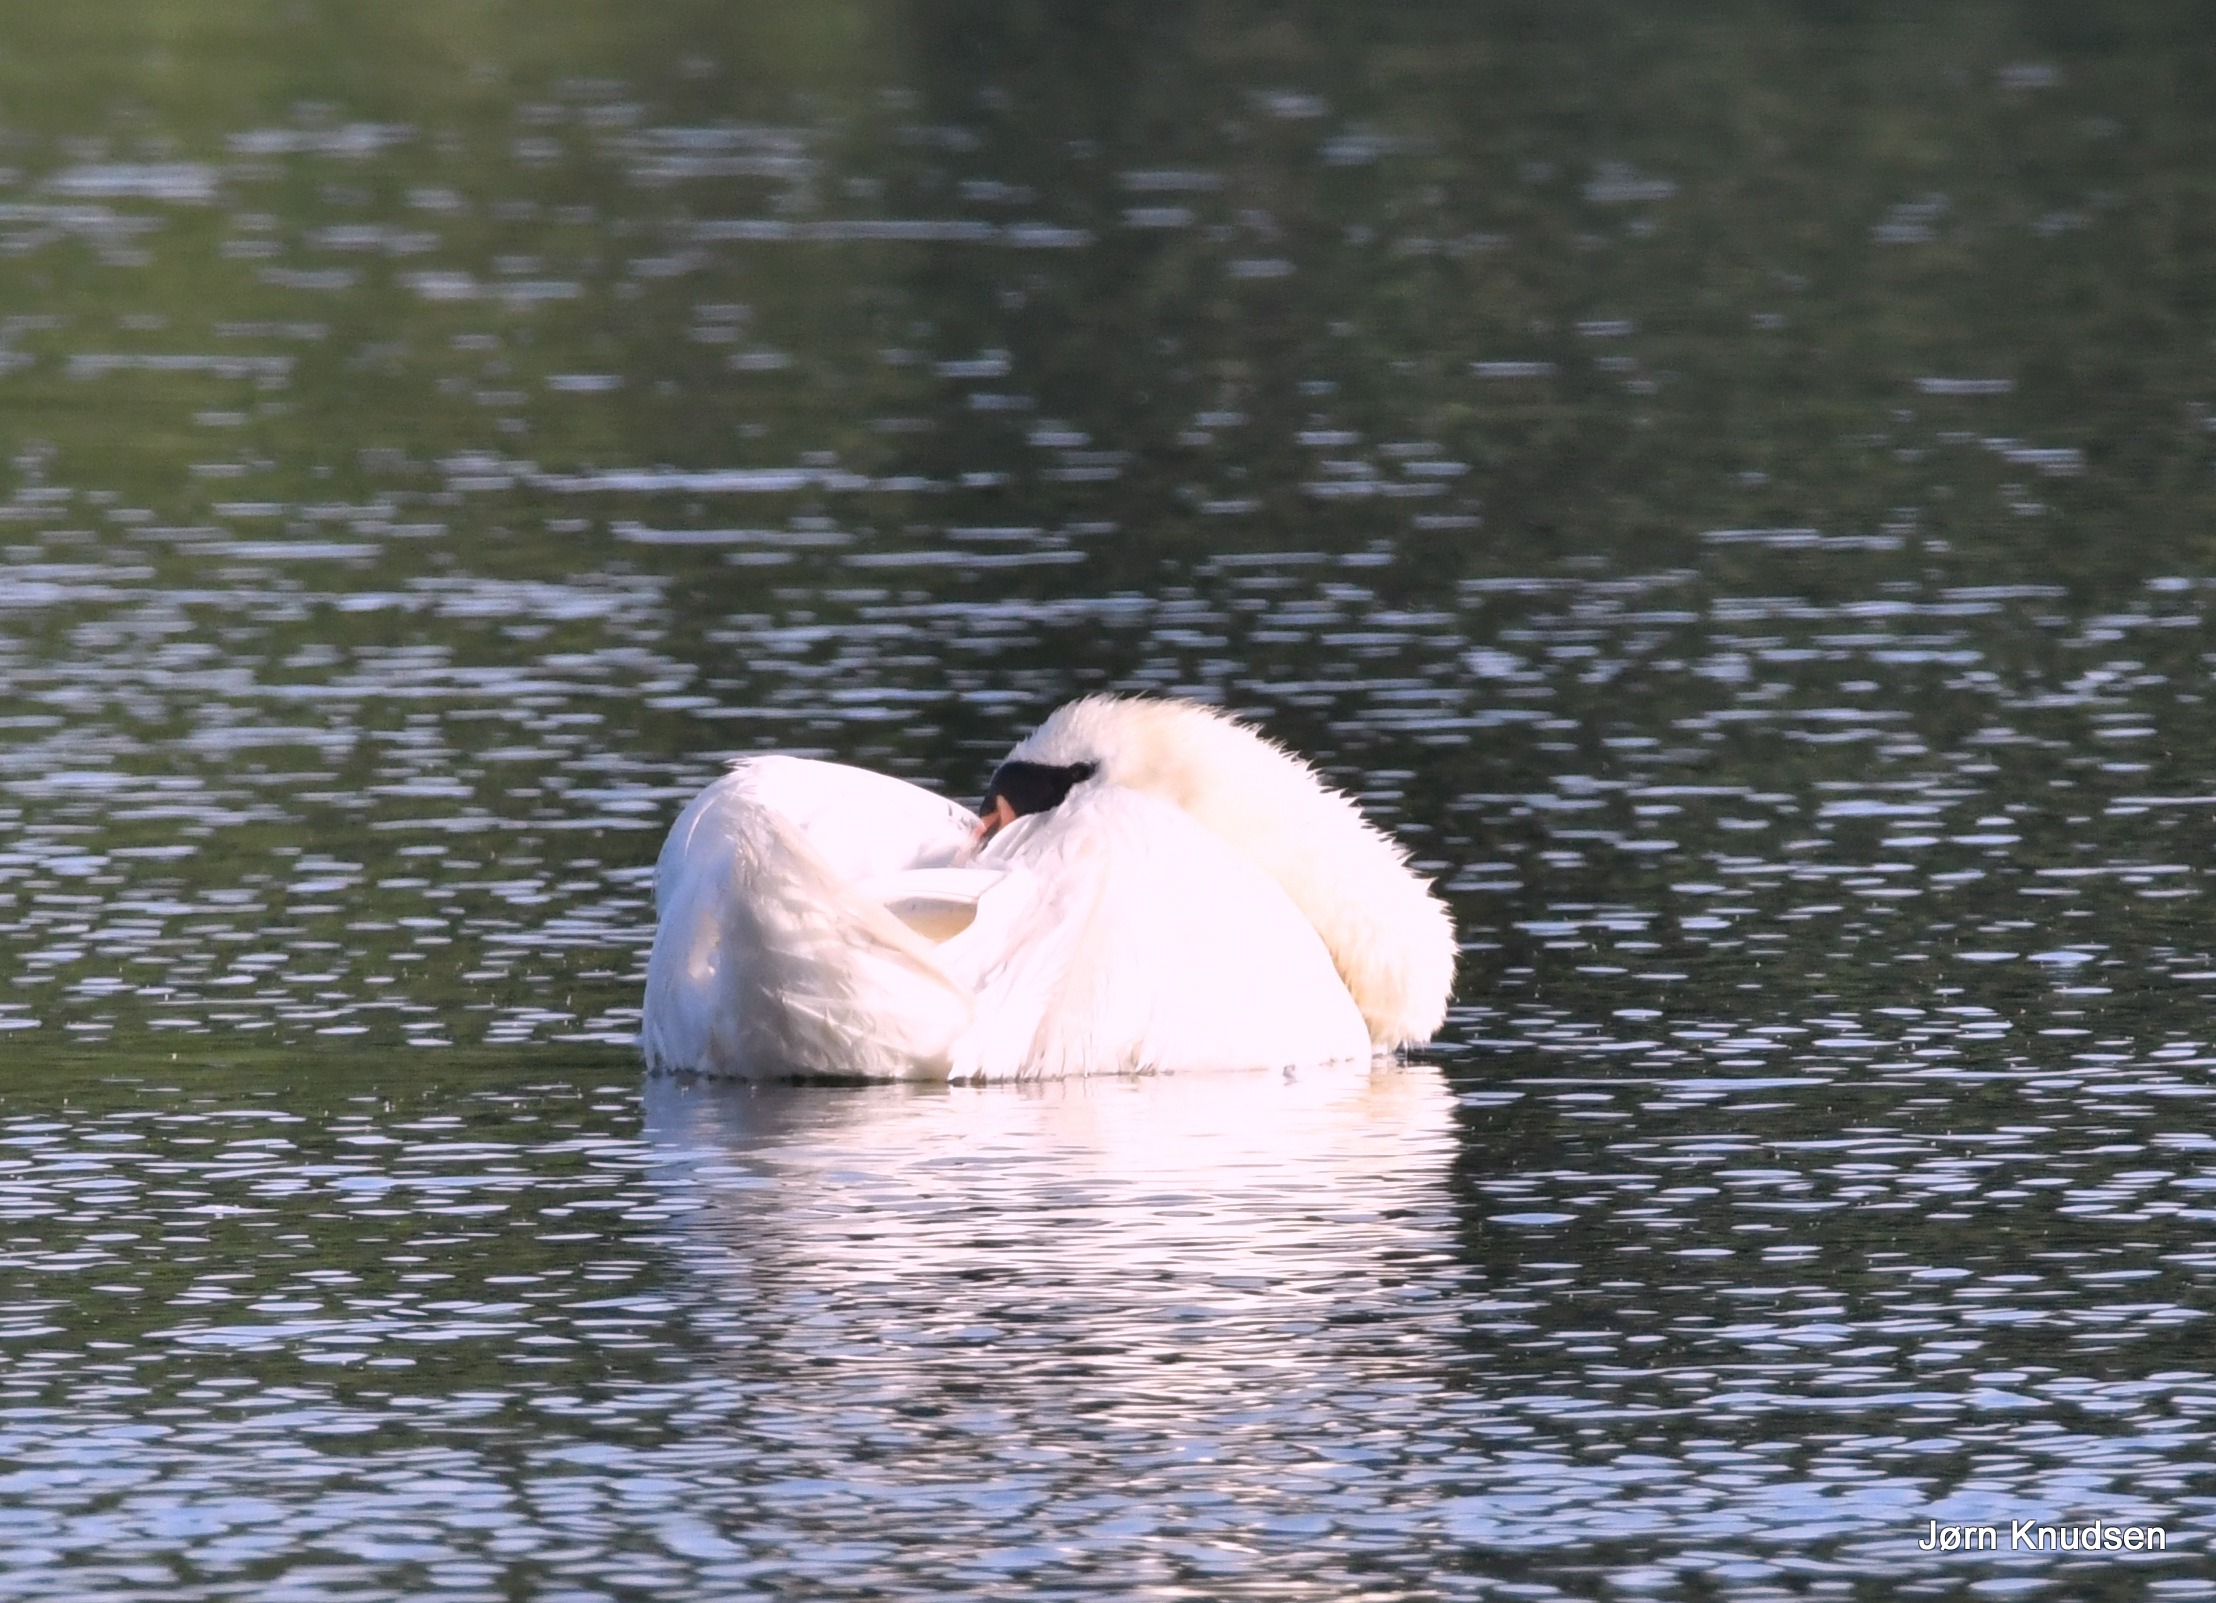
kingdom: Animalia
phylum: Chordata
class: Aves
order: Anseriformes
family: Anatidae
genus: Cygnus
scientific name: Cygnus olor
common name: Knopsvane
